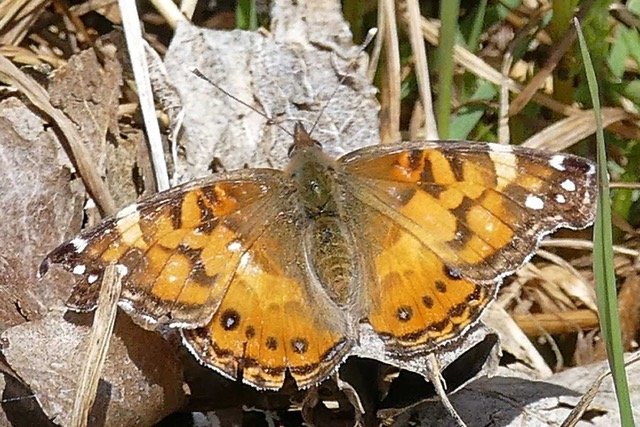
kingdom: Animalia
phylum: Arthropoda
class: Insecta
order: Lepidoptera
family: Nymphalidae
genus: Vanessa
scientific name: Vanessa virginiensis
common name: American Lady
